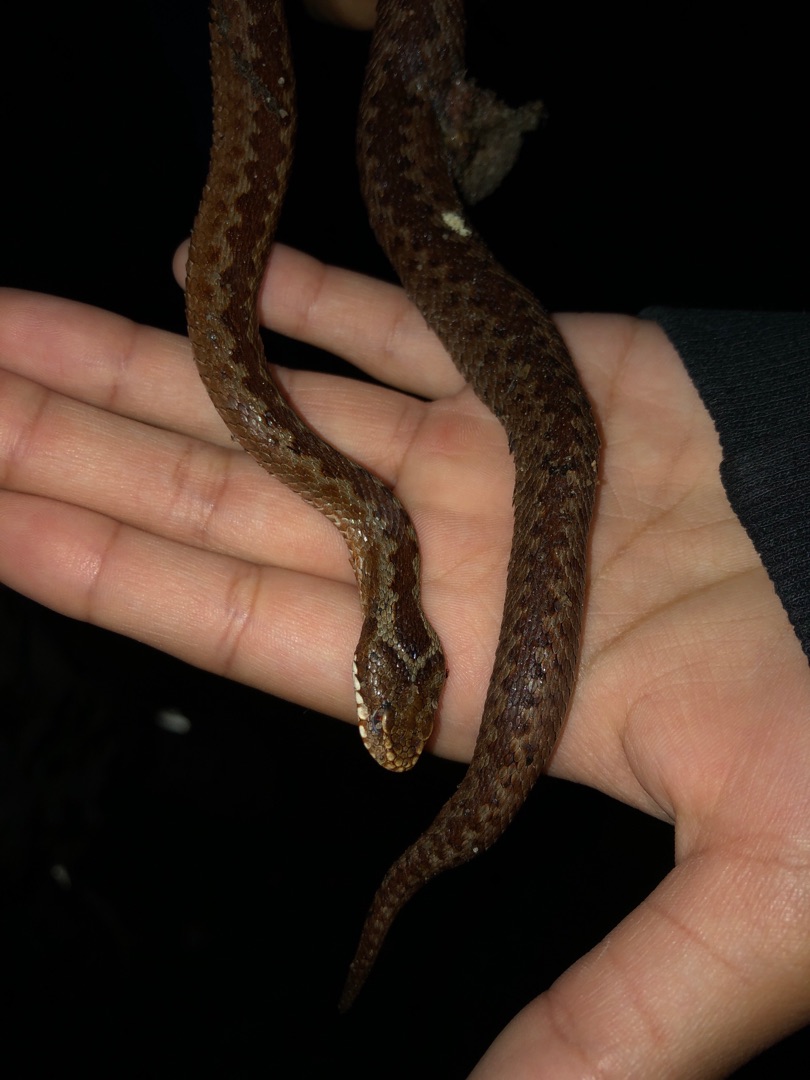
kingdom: Animalia
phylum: Chordata
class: Squamata
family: Viperidae
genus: Vipera
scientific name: Vipera berus
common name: Hugorm
